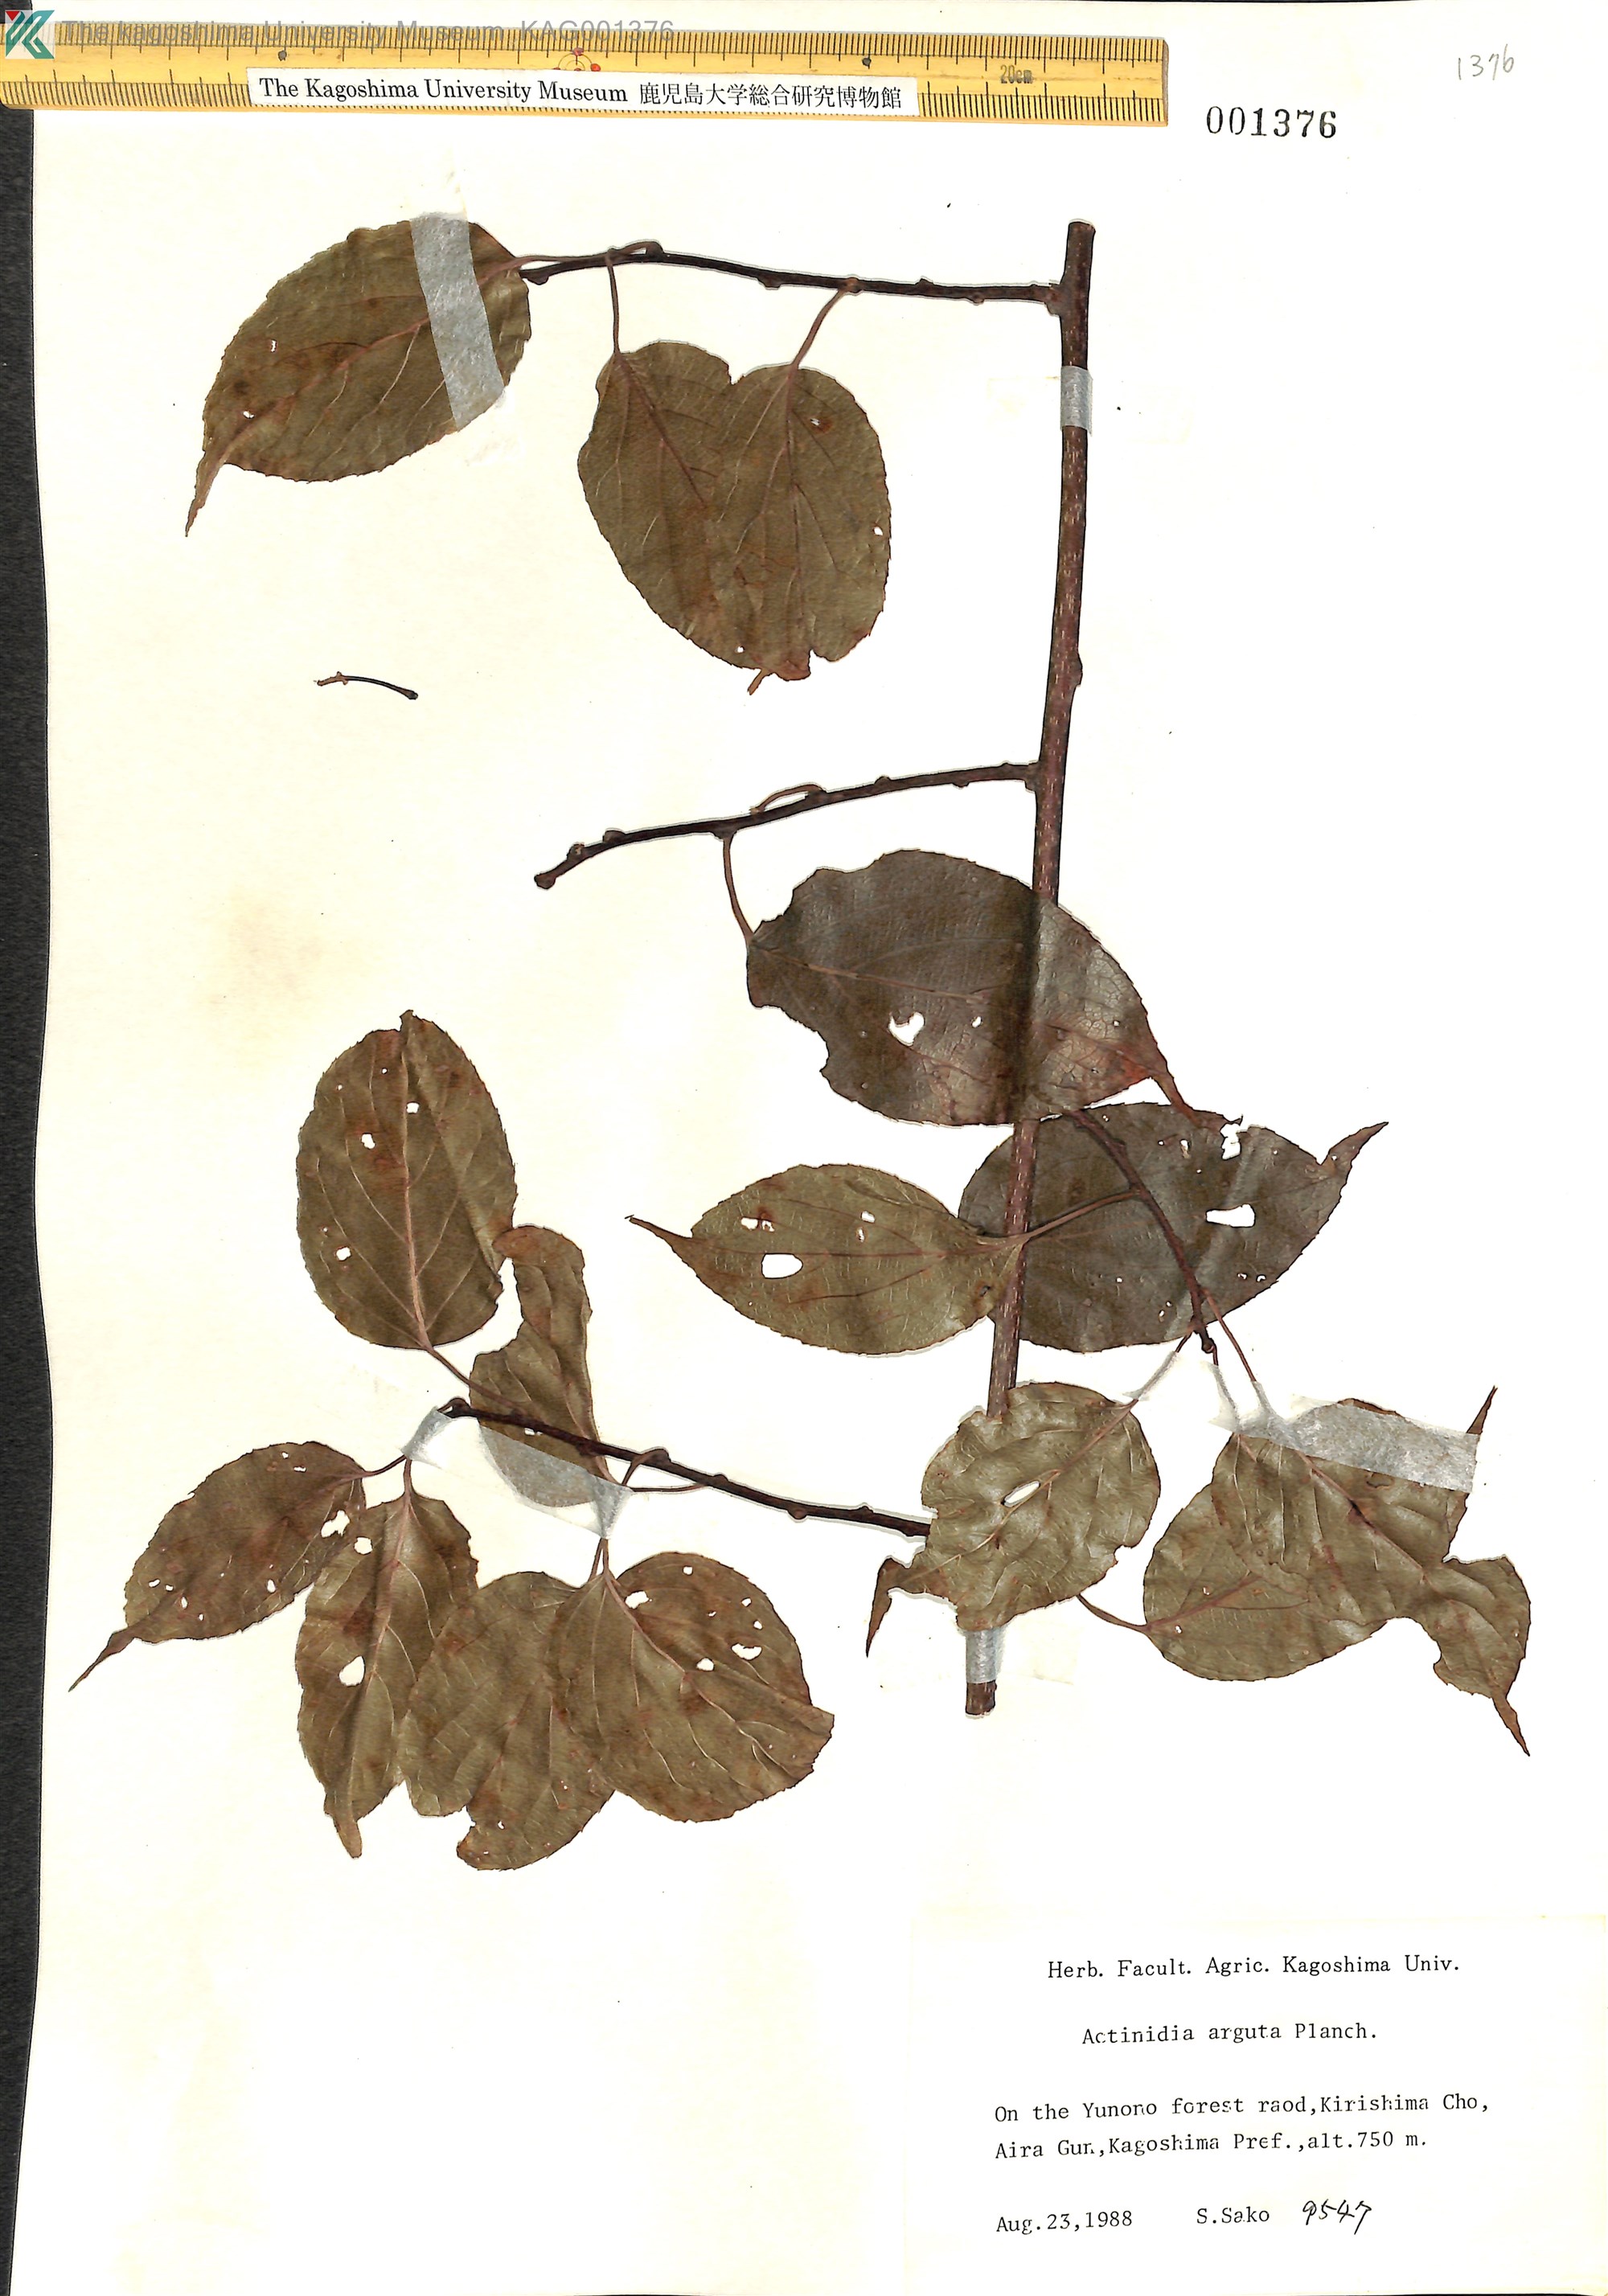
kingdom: Plantae
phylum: Tracheophyta
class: Magnoliopsida
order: Ericales
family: Actinidiaceae
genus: Actinidia
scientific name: Actinidia arguta
